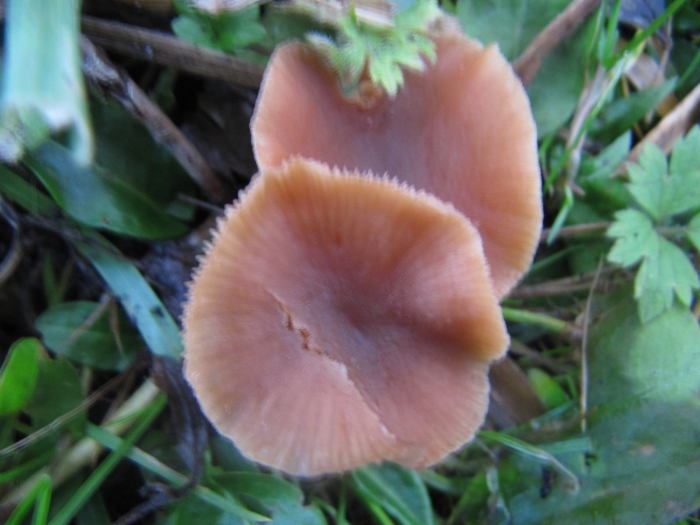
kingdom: Fungi
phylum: Basidiomycota
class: Agaricomycetes
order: Agaricales
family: Tubariaceae
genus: Tubaria
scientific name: Tubaria furfuracea
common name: kliddet fnughat
